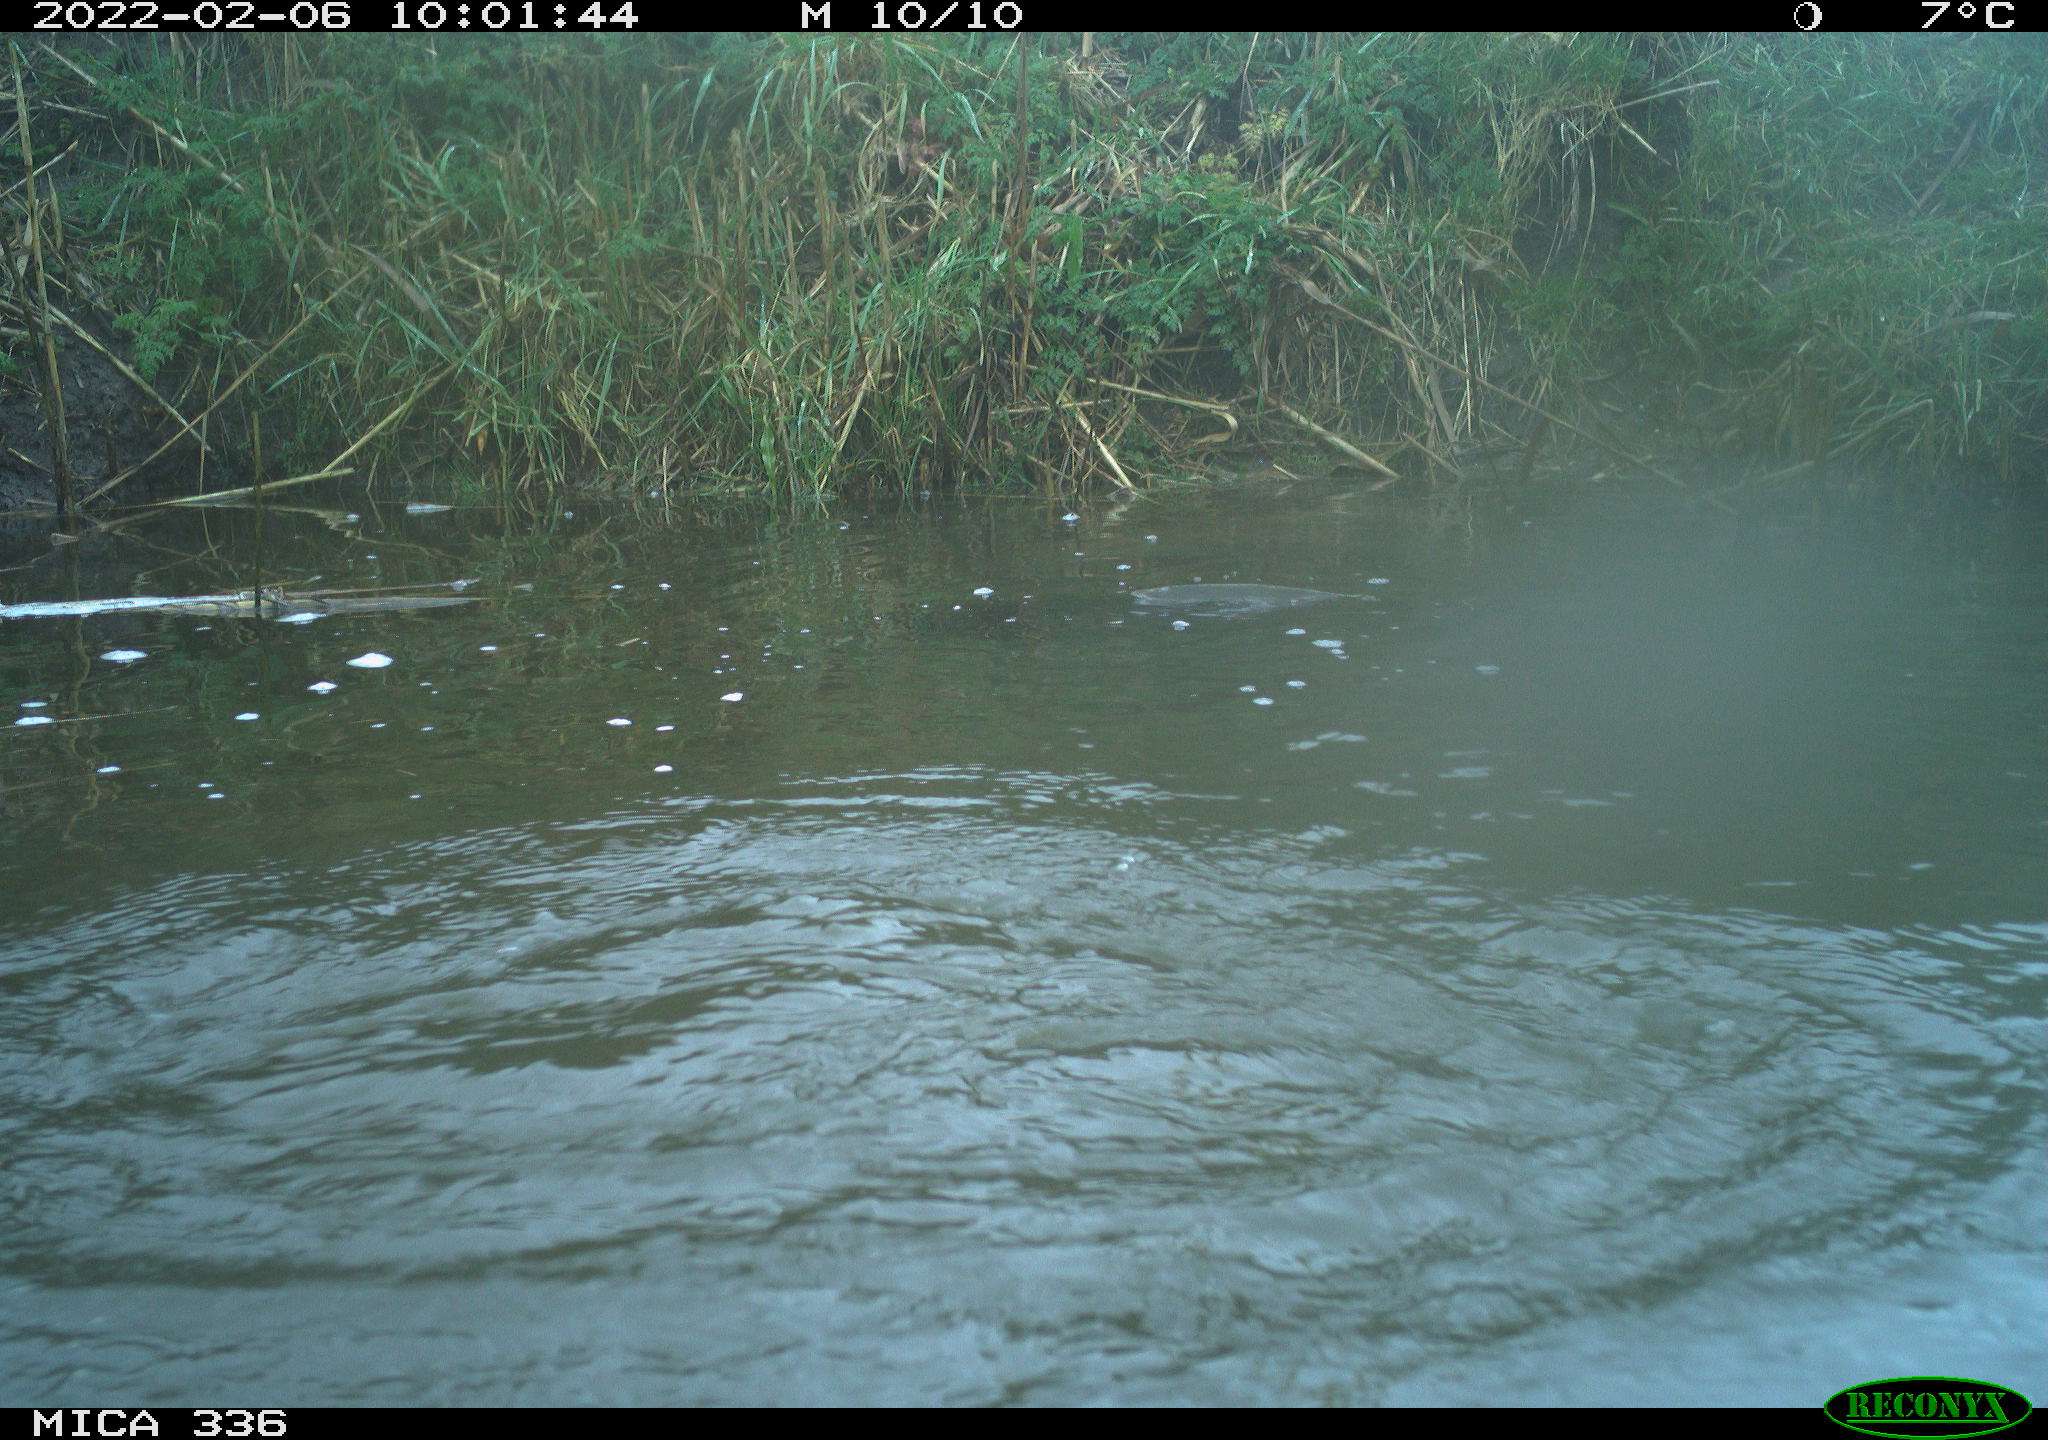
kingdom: Animalia
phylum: Chordata
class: Aves
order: Suliformes
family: Phalacrocoracidae
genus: Phalacrocorax
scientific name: Phalacrocorax carbo
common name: Great cormorant
